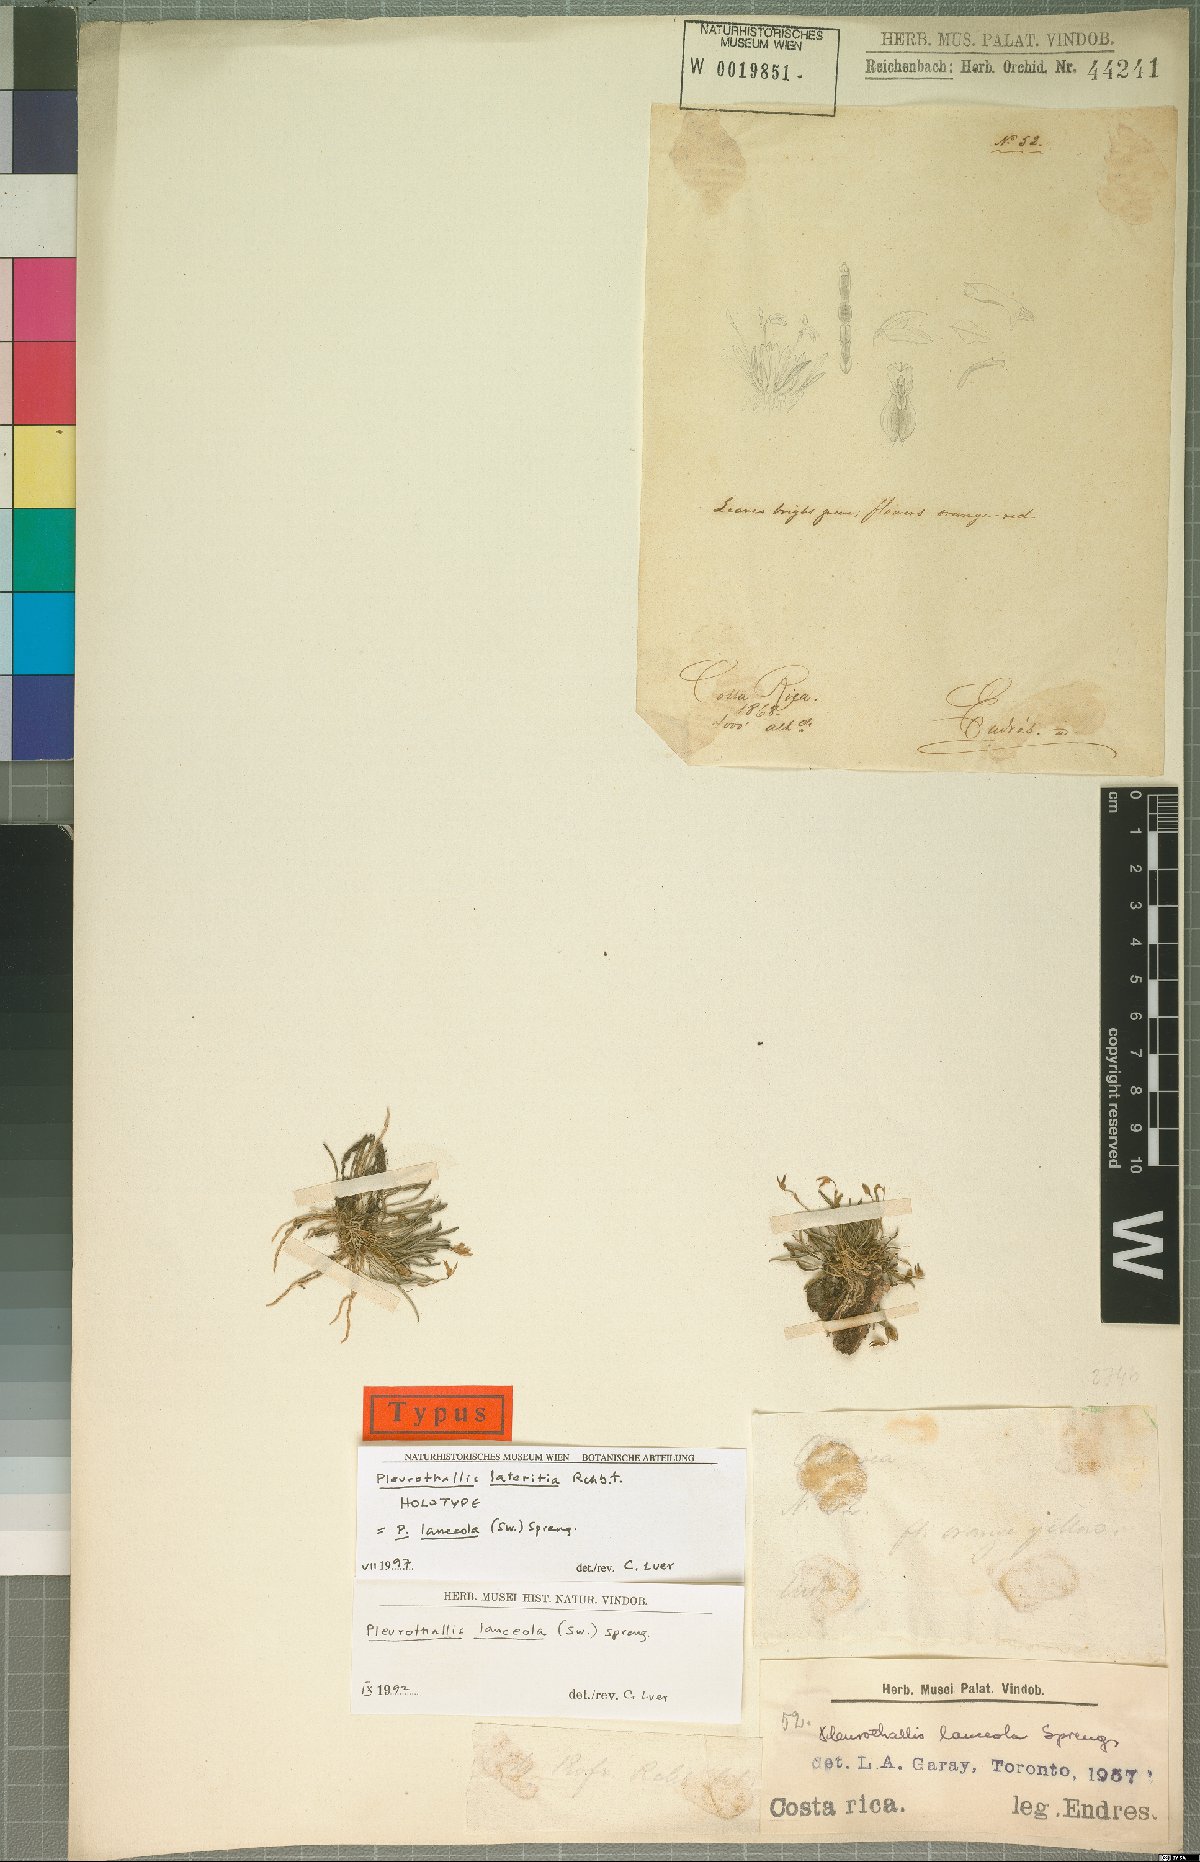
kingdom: Plantae
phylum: Tracheophyta
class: Liliopsida
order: Asparagales
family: Orchidaceae
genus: Specklinia
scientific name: Specklinia lanceola
